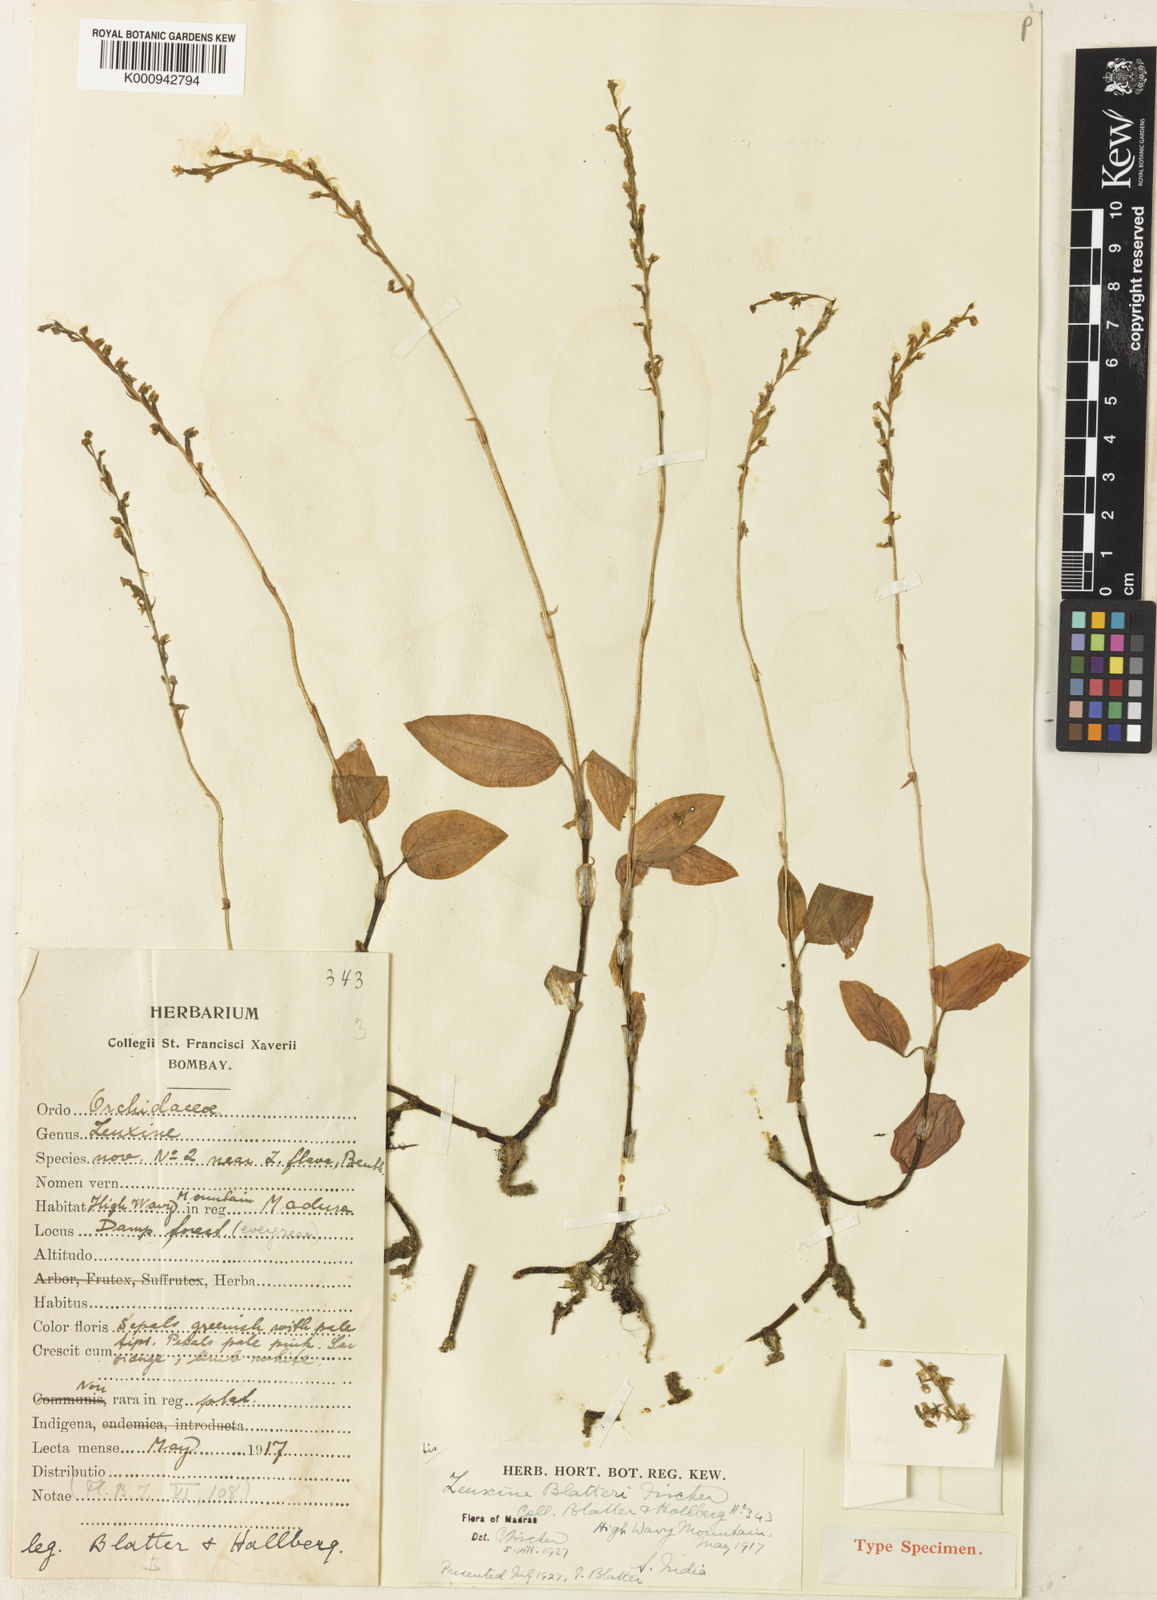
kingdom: Plantae
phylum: Tracheophyta
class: Liliopsida
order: Asparagales
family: Orchidaceae
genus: Zeuxine
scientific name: Zeuxine blatteri
